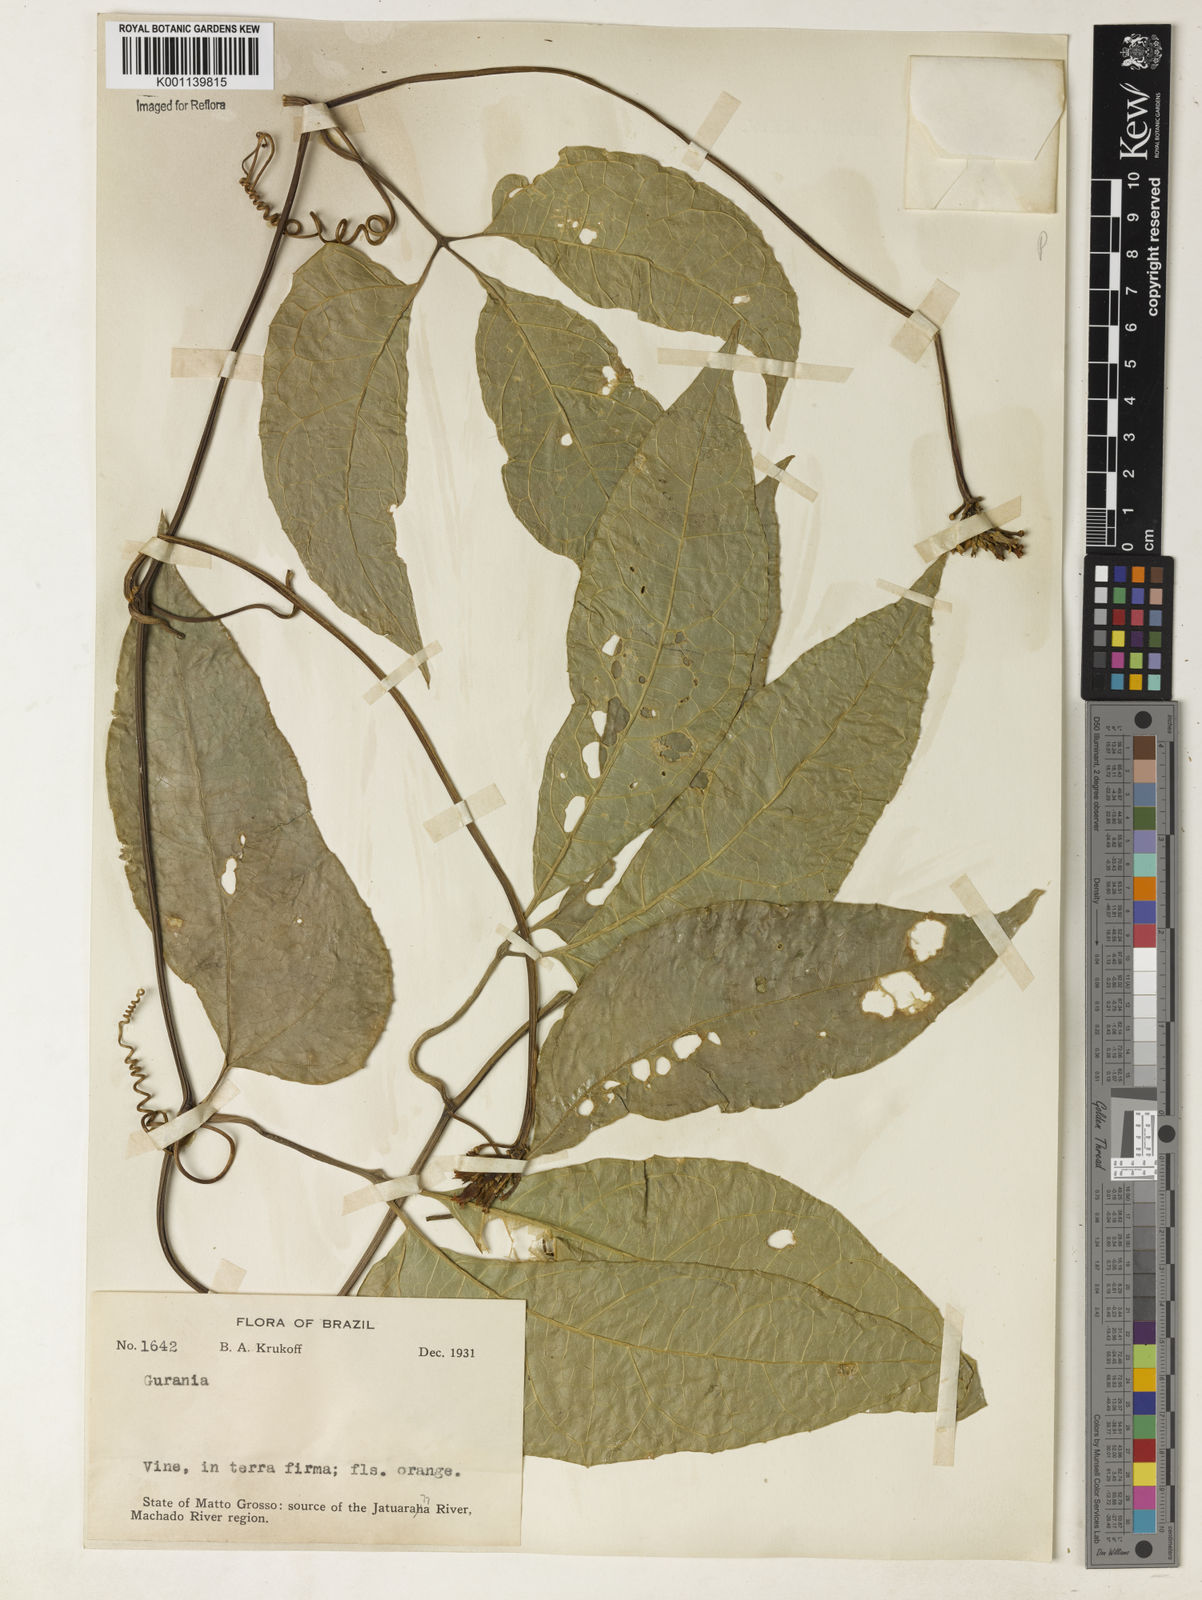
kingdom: Plantae
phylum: Tracheophyta
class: Magnoliopsida
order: Cucurbitales
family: Cucurbitaceae
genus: Gurania
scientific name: Gurania acuminata
